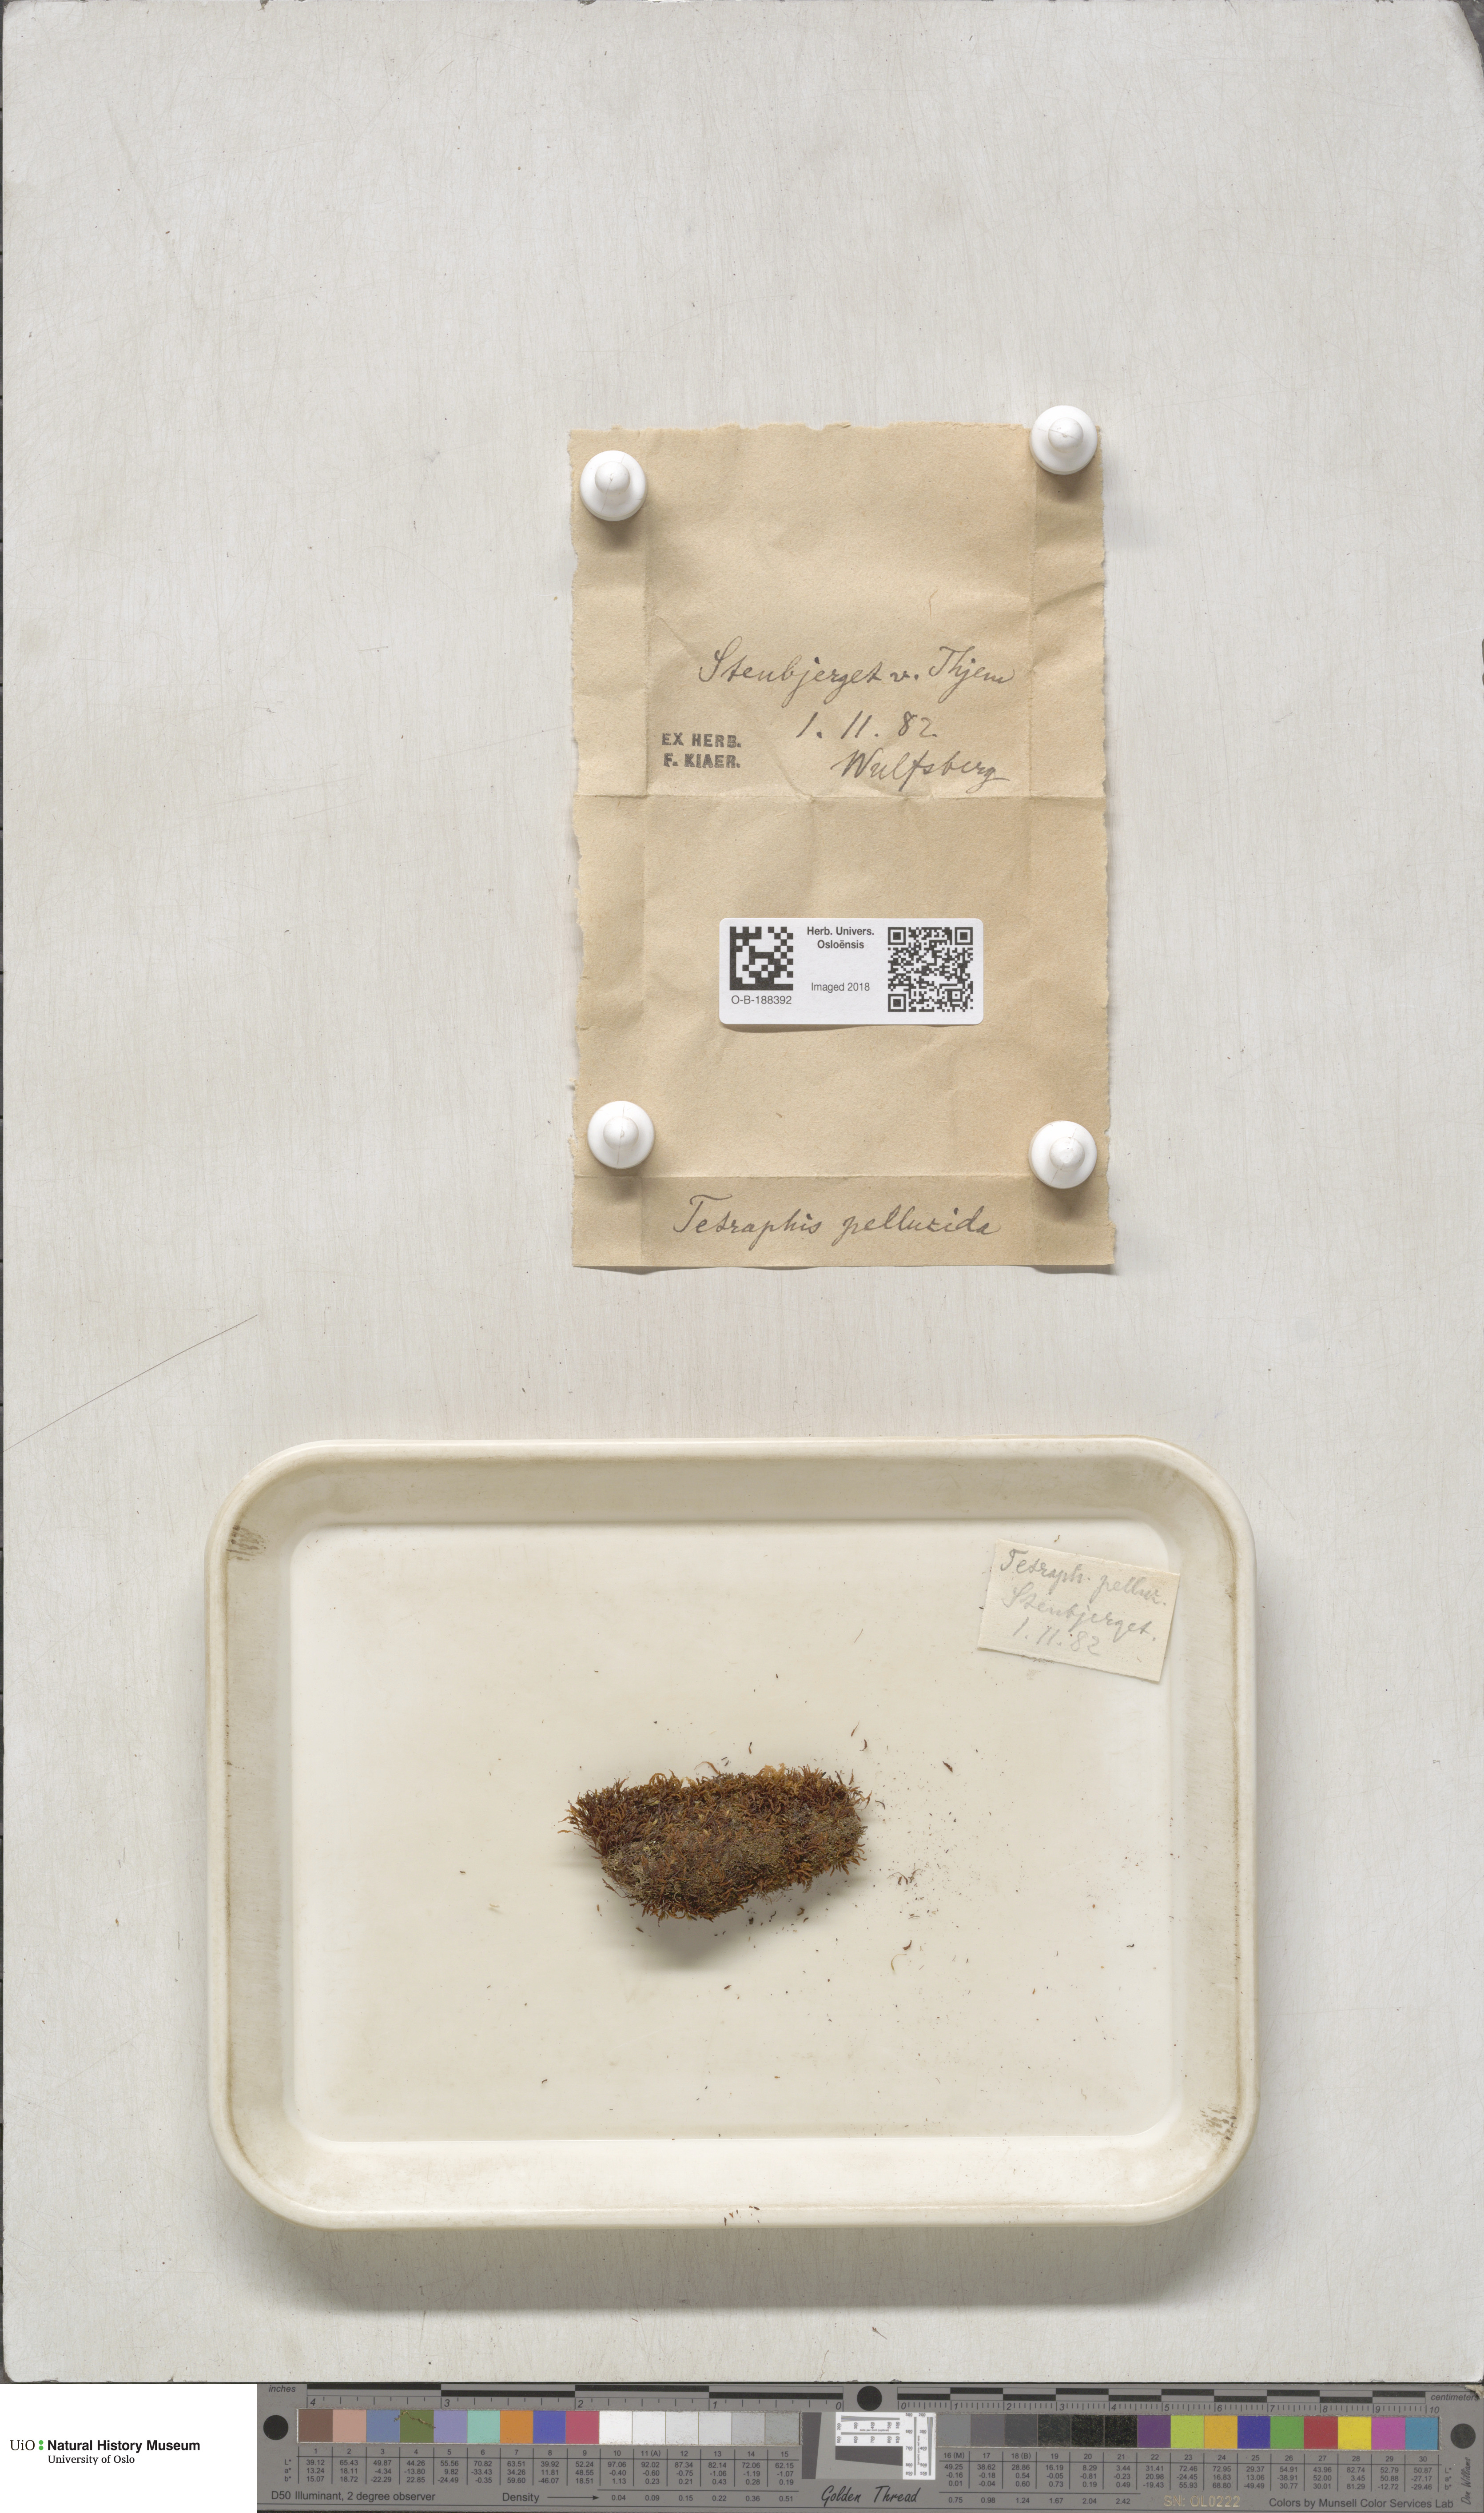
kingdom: Plantae
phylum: Bryophyta
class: Polytrichopsida
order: Tetraphidales
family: Tetraphidaceae
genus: Tetraphis
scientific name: Tetraphis pellucida
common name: Common four-toothed moss
